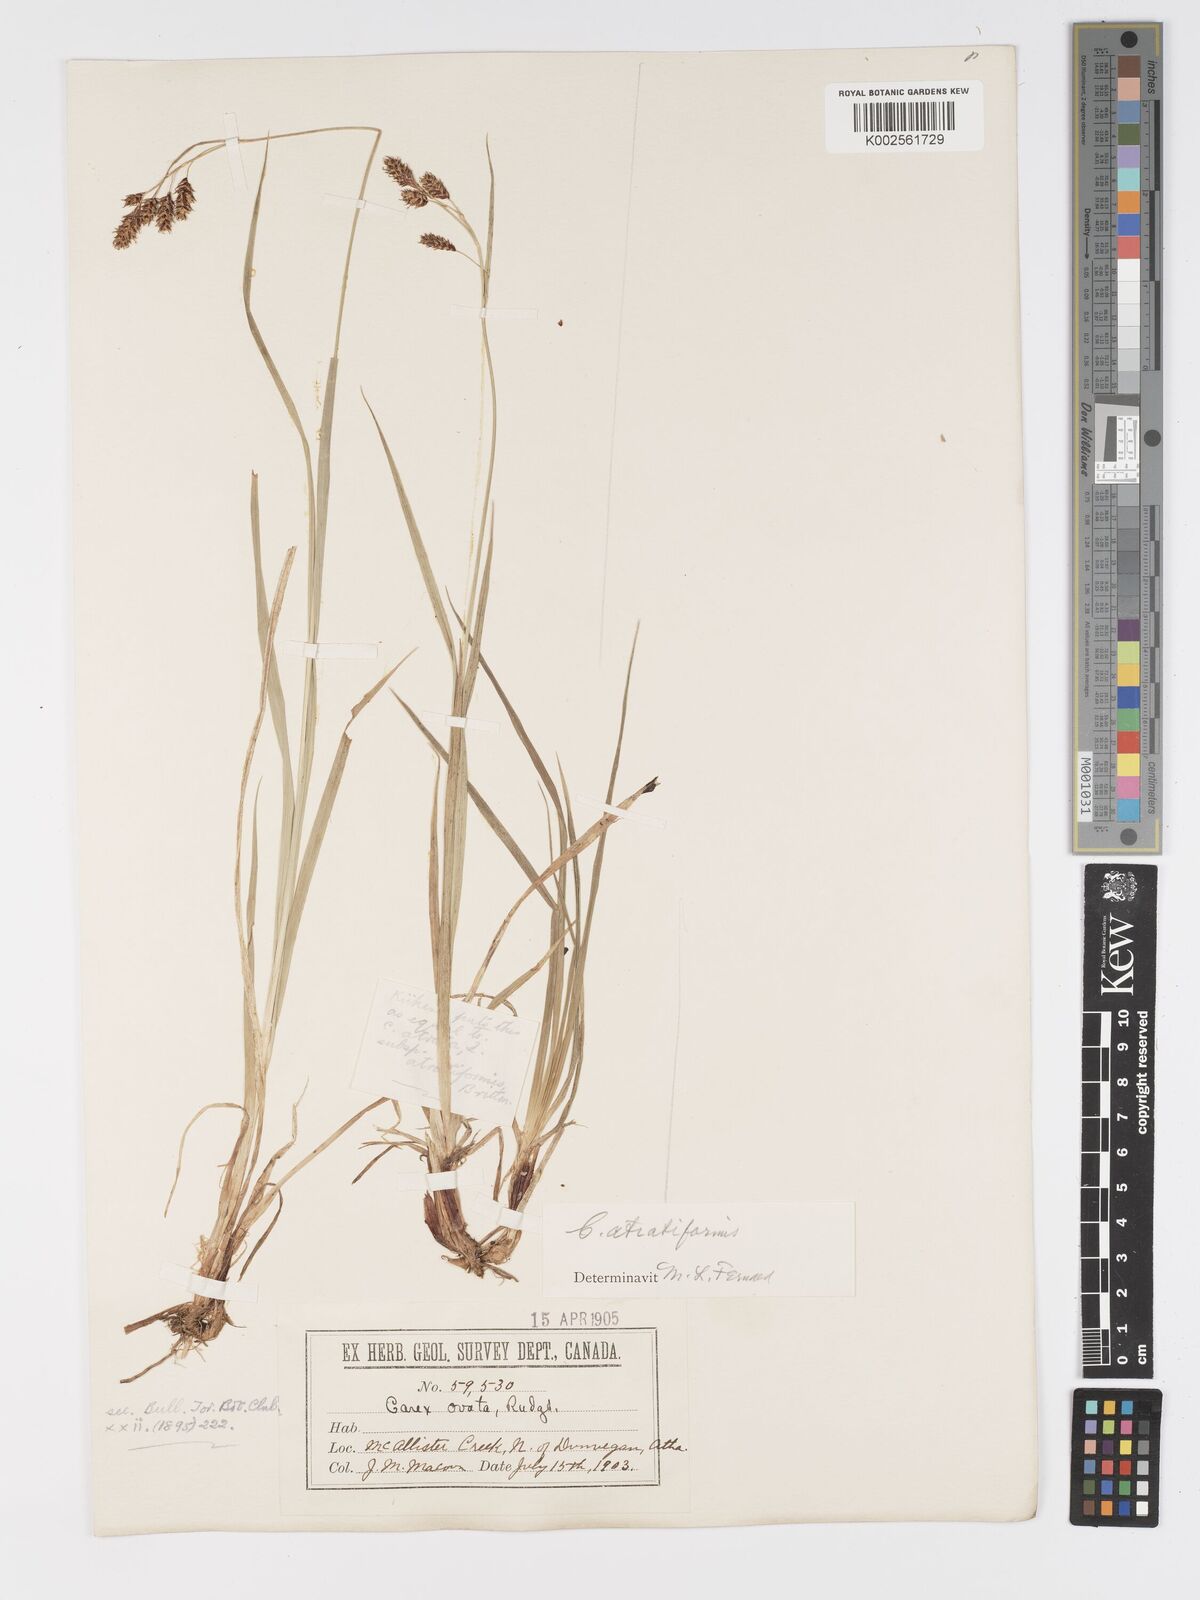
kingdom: Plantae
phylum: Tracheophyta
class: Liliopsida
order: Poales
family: Cyperaceae
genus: Carex
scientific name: Carex atratiformis
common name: Black sedge
